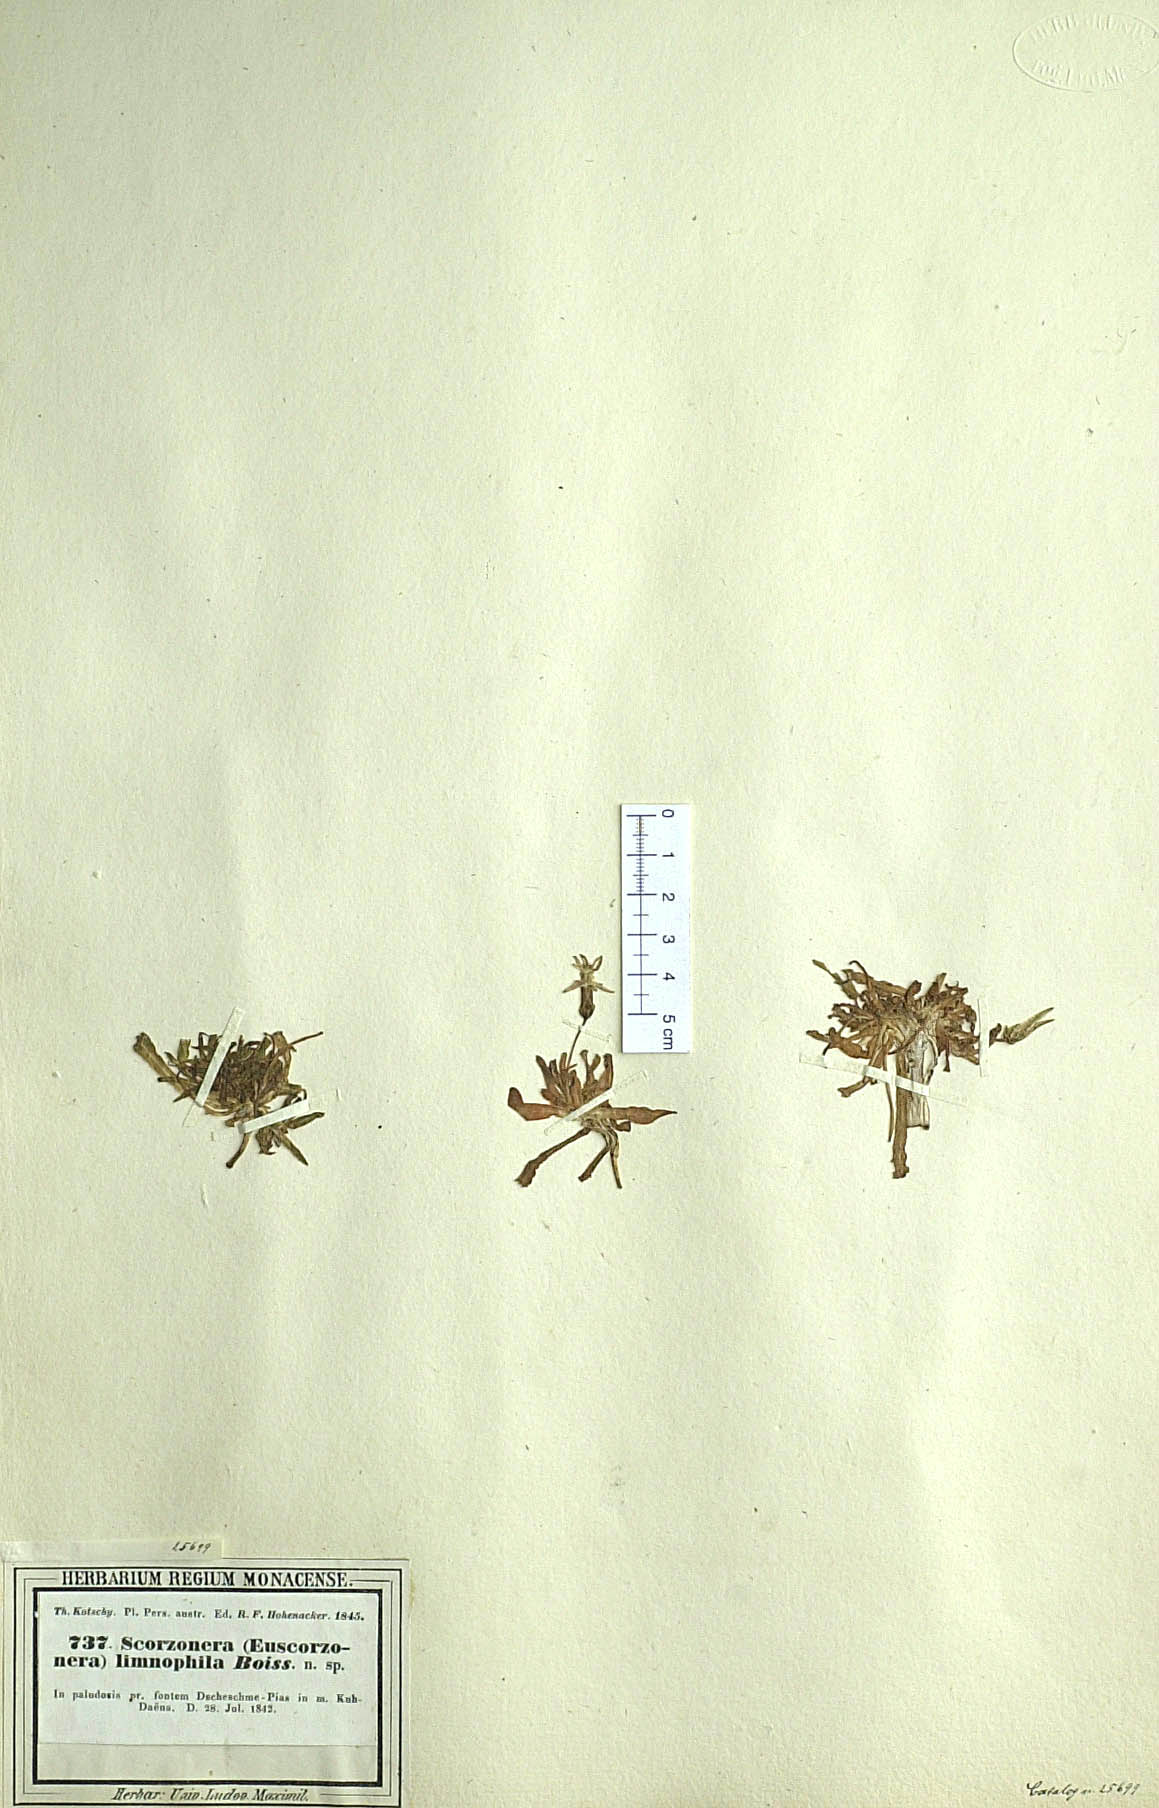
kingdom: Plantae
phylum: Tracheophyta
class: Magnoliopsida
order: Asterales
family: Asteraceae
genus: Scorzonera
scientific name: Scorzonera limnophila
